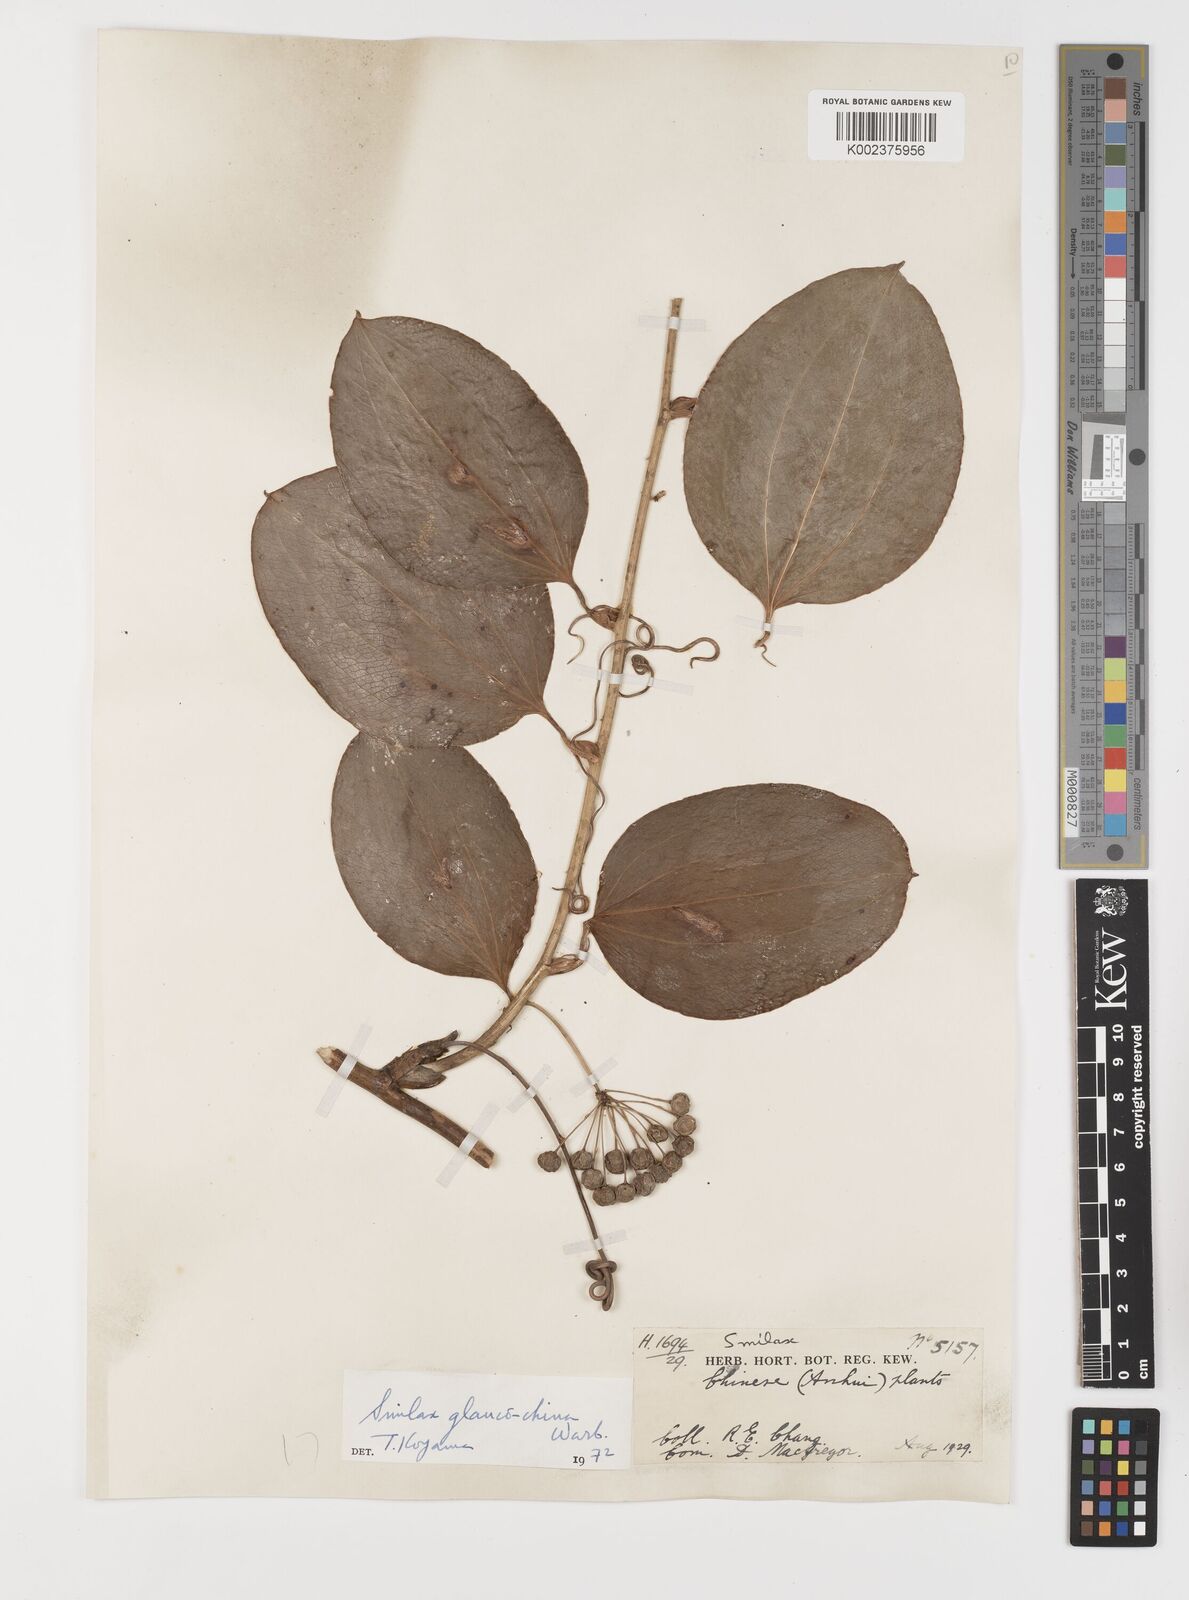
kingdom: Plantae
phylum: Tracheophyta
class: Liliopsida
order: Liliales
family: Smilacaceae
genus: Smilax
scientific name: Smilax glaucochina
